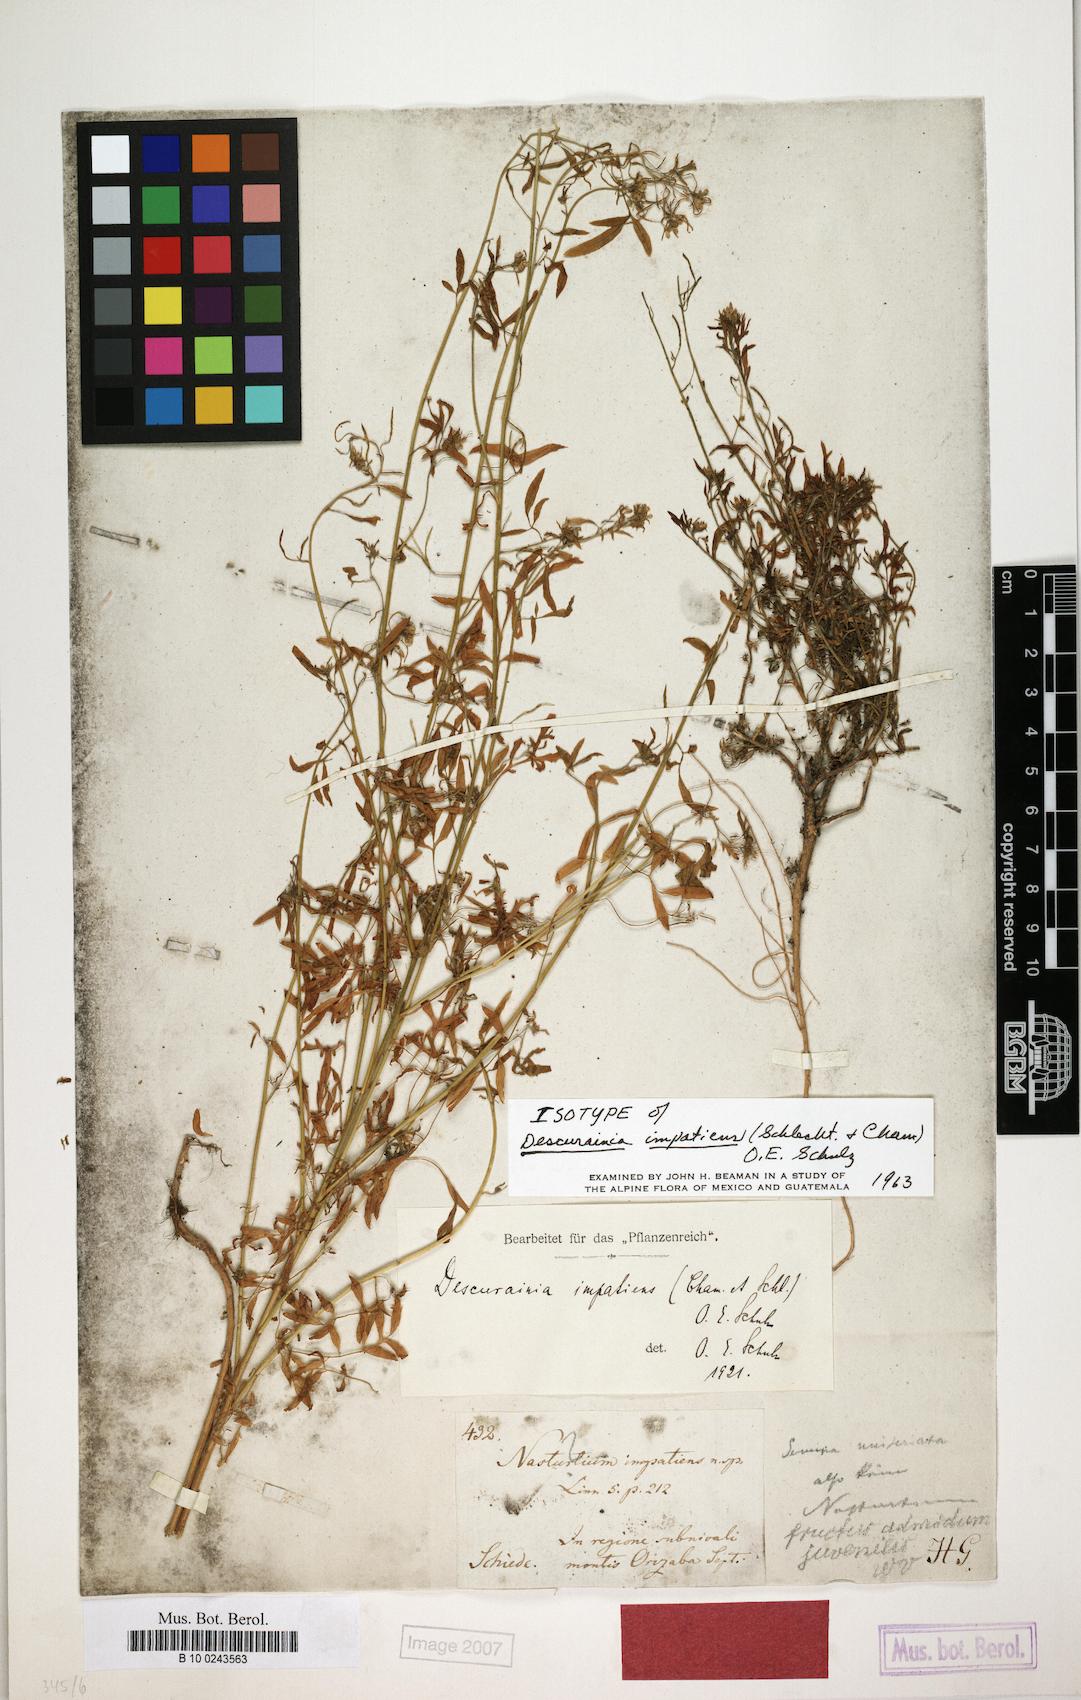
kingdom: Plantae
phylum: Tracheophyta
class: Magnoliopsida
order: Brassicales
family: Brassicaceae
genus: Descurainia
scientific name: Descurainia impatiens
